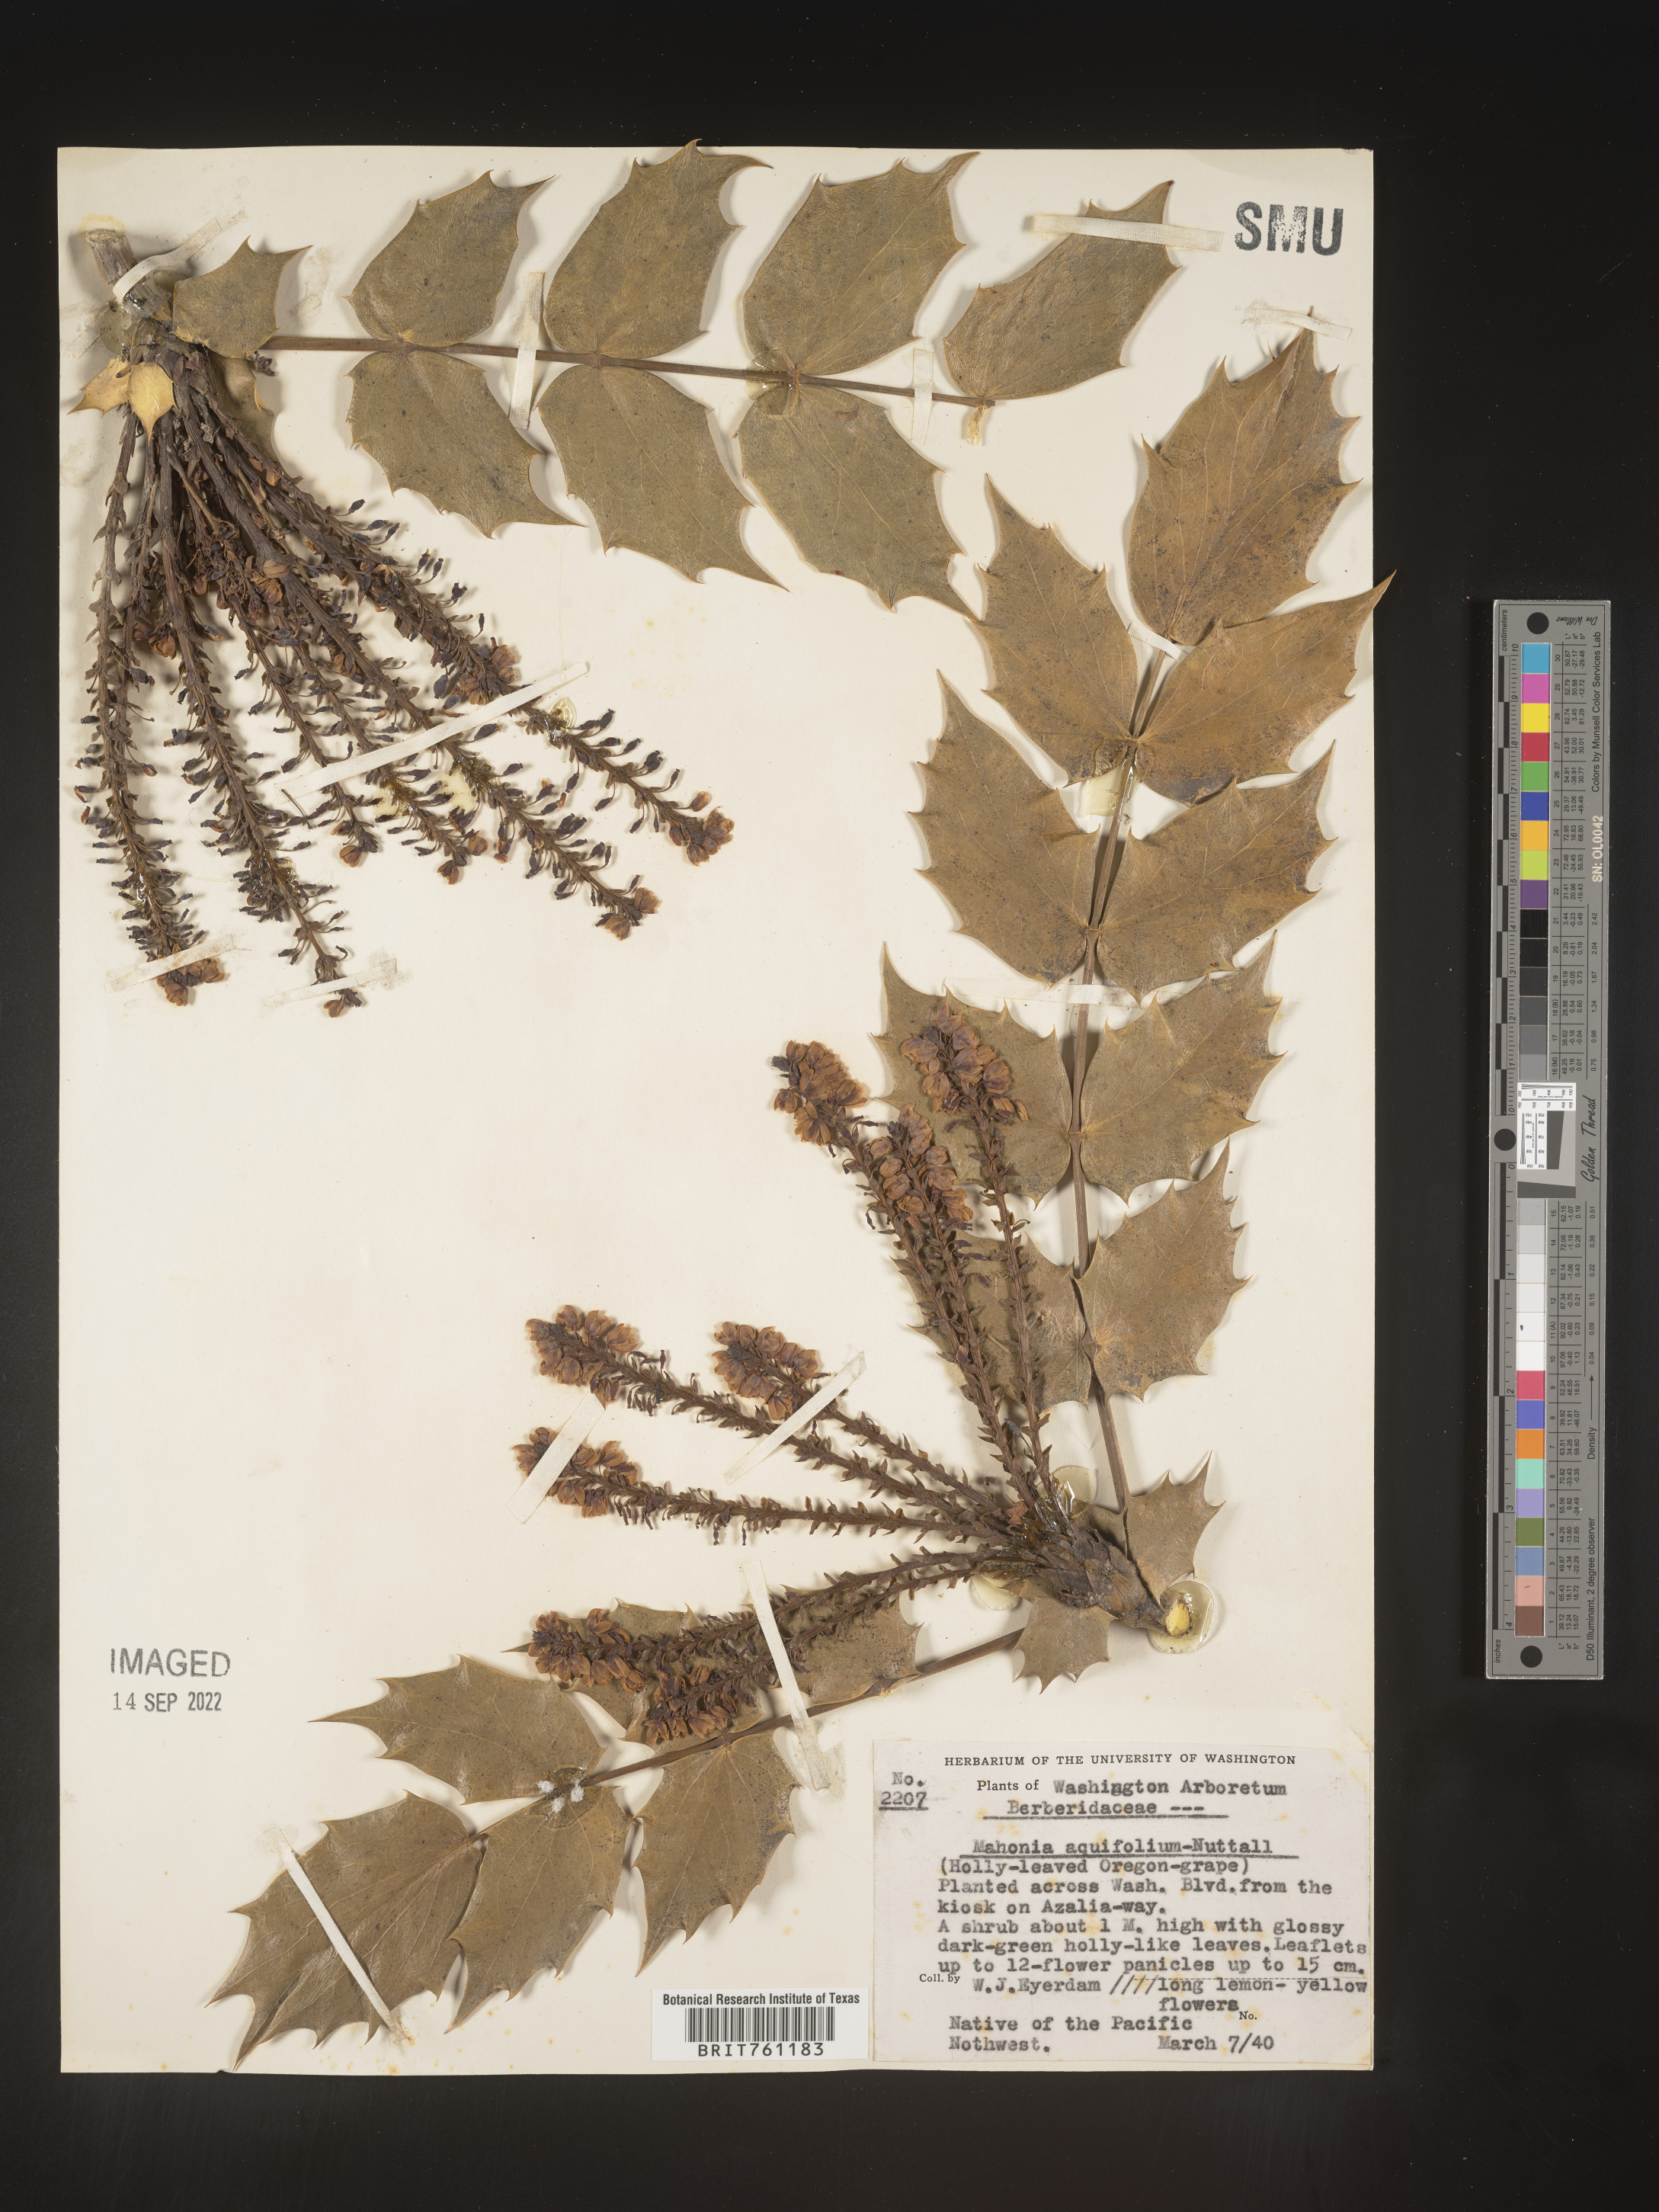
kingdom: Plantae
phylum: Tracheophyta
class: Magnoliopsida
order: Ranunculales
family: Berberidaceae
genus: Mahonia
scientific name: Mahonia
